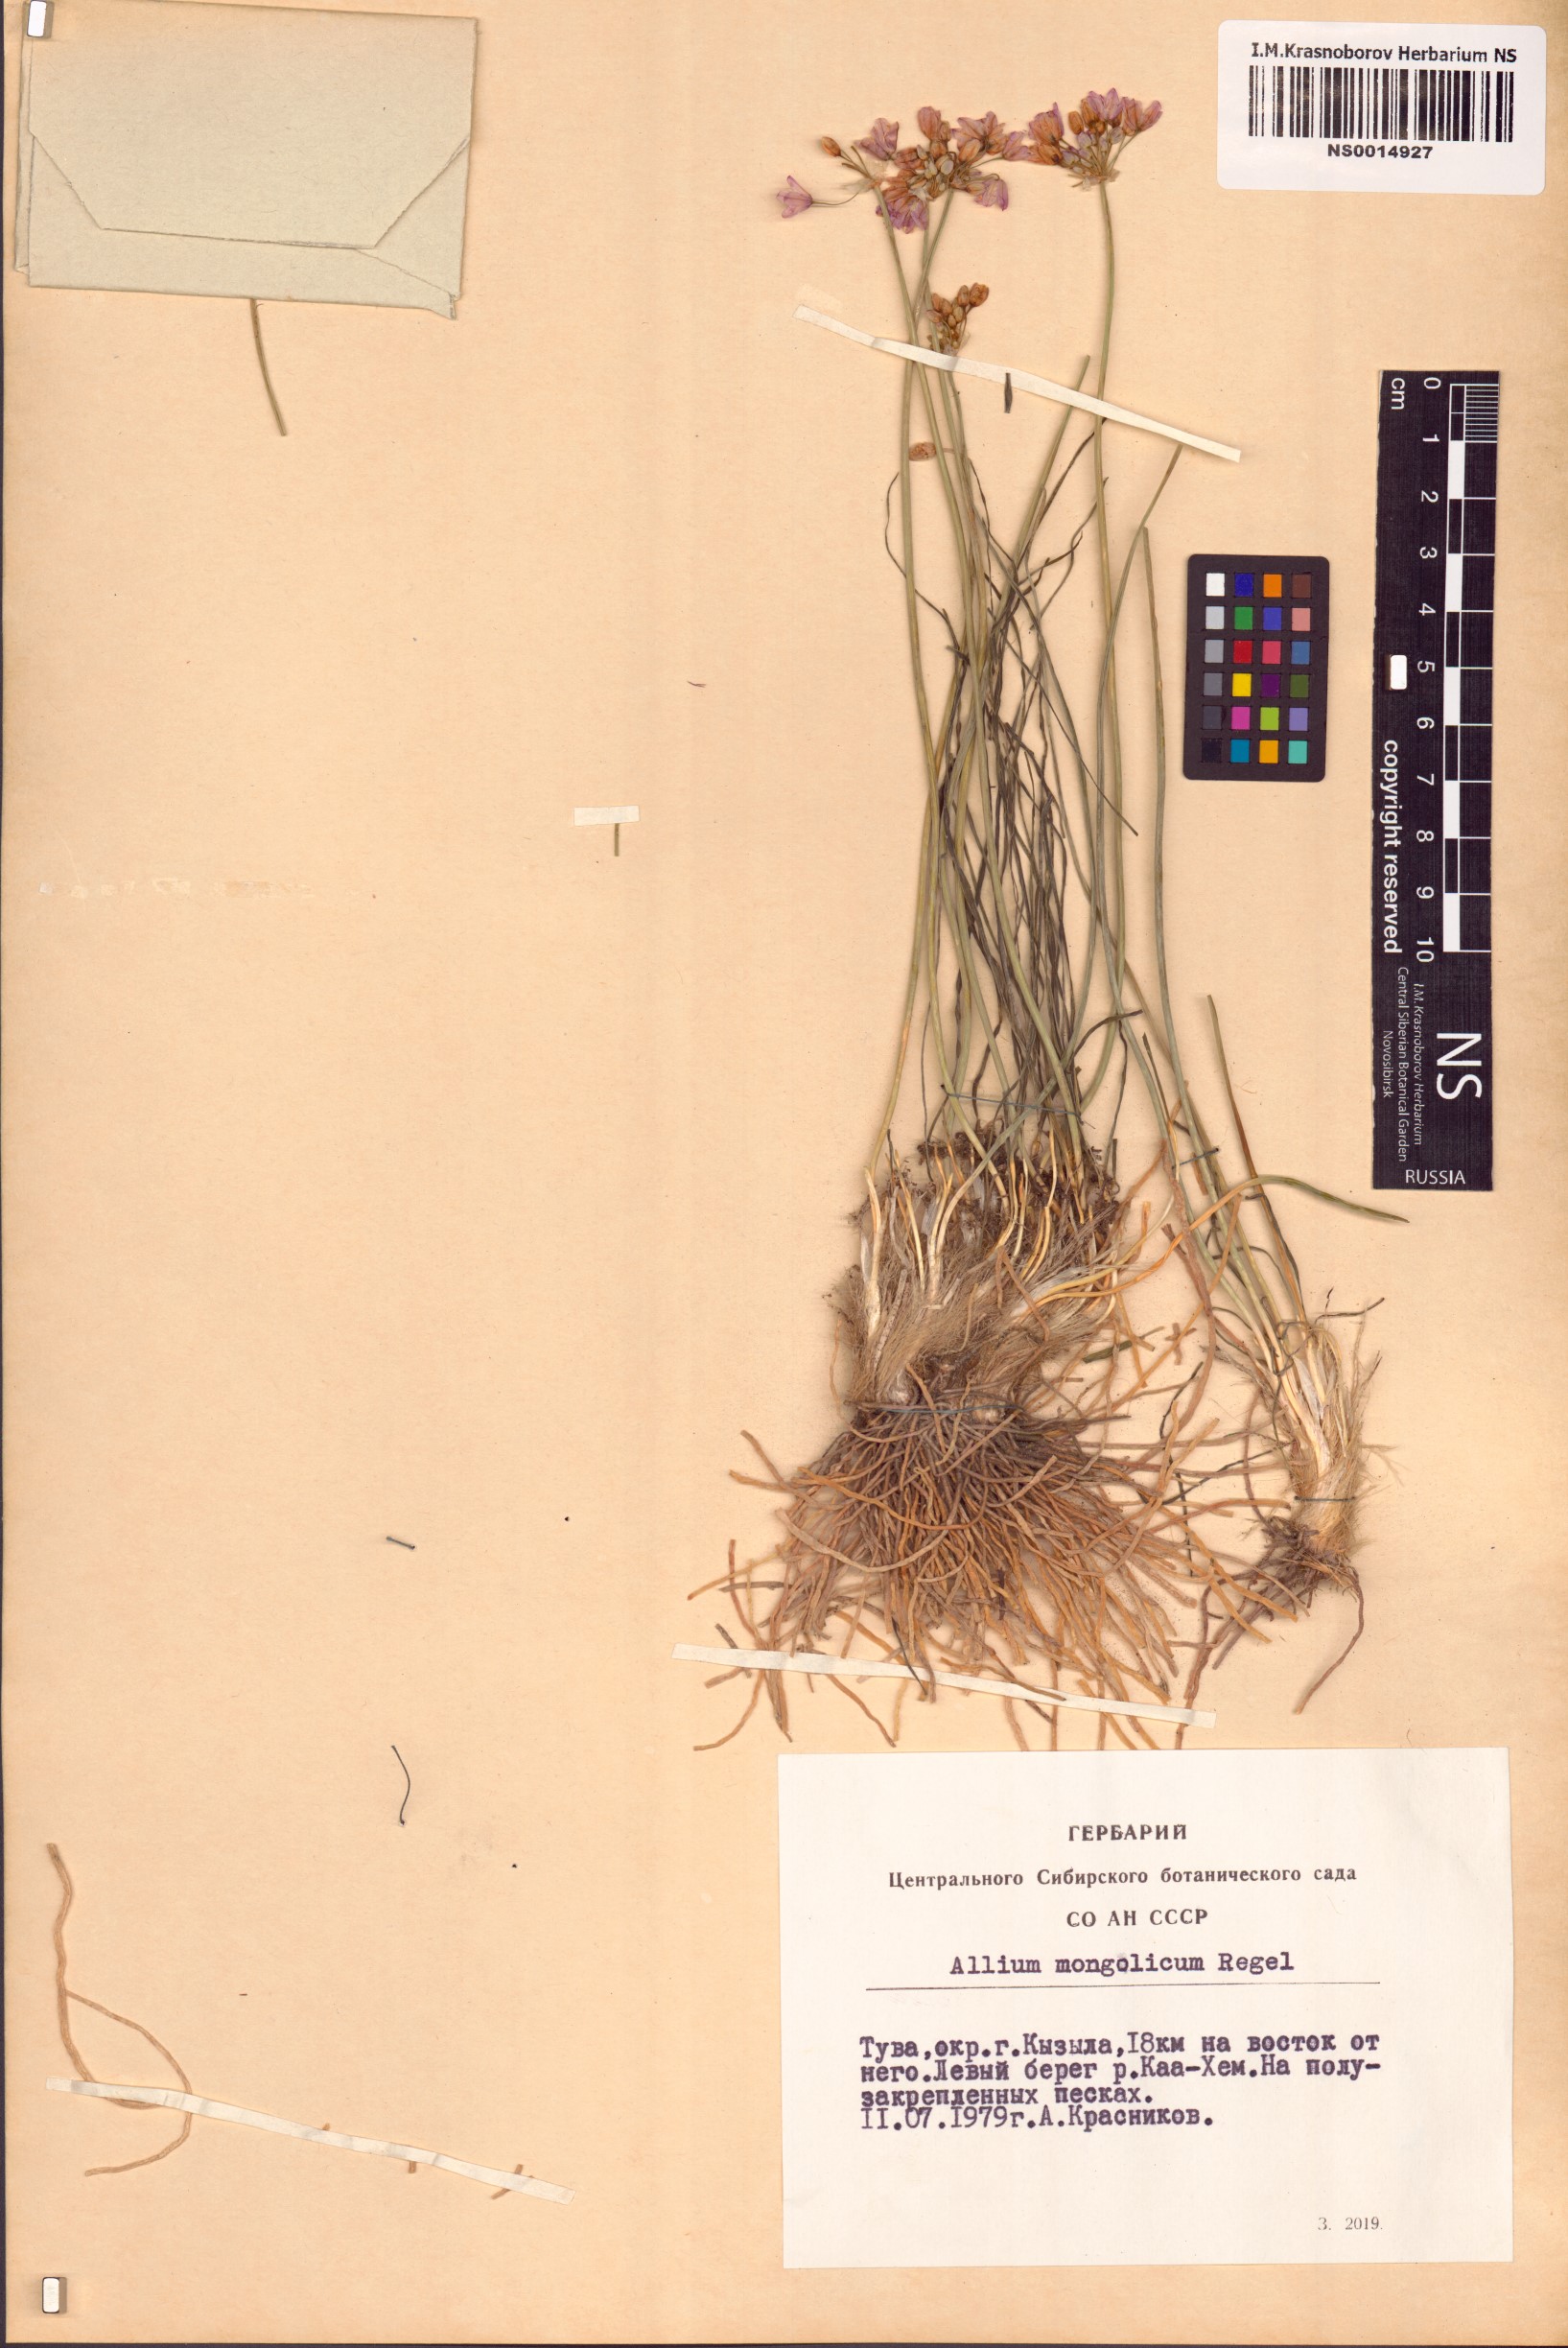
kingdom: Plantae
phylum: Tracheophyta
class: Liliopsida
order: Asparagales
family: Amaryllidaceae
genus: Allium
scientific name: Allium mongolicum
